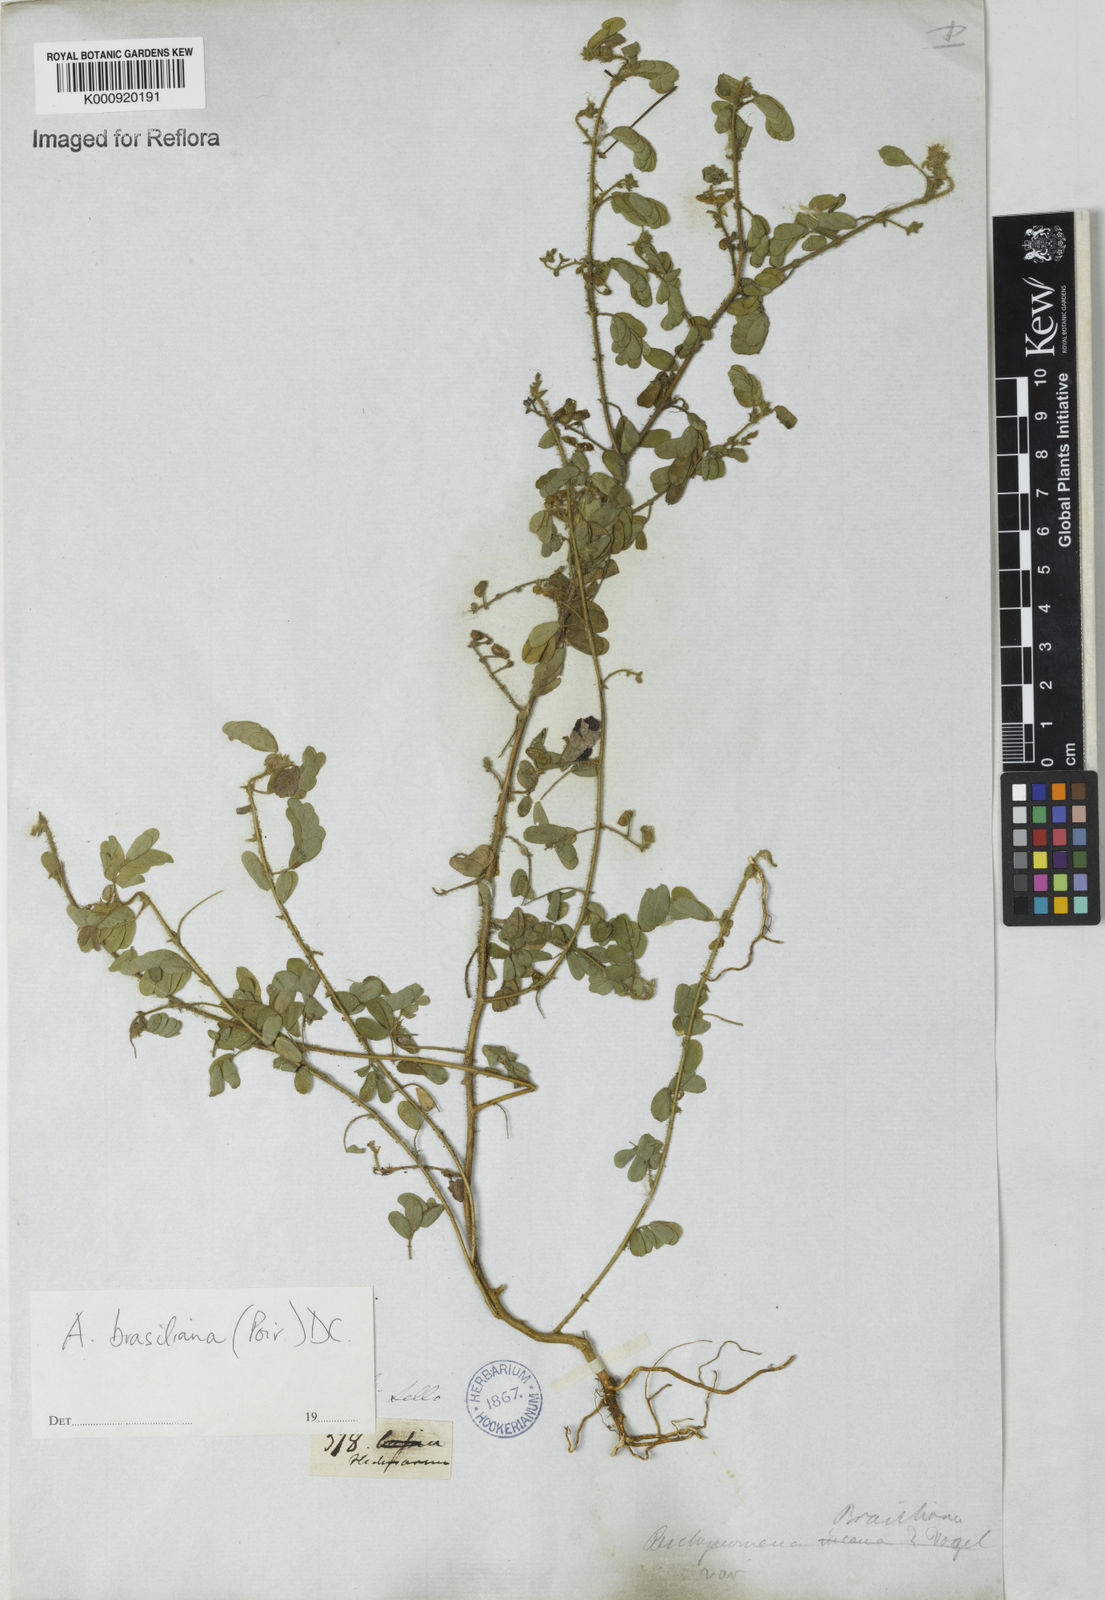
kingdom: Plantae
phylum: Tracheophyta
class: Magnoliopsida
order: Fabales
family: Fabaceae
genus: Ctenodon
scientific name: Ctenodon brasilianus
